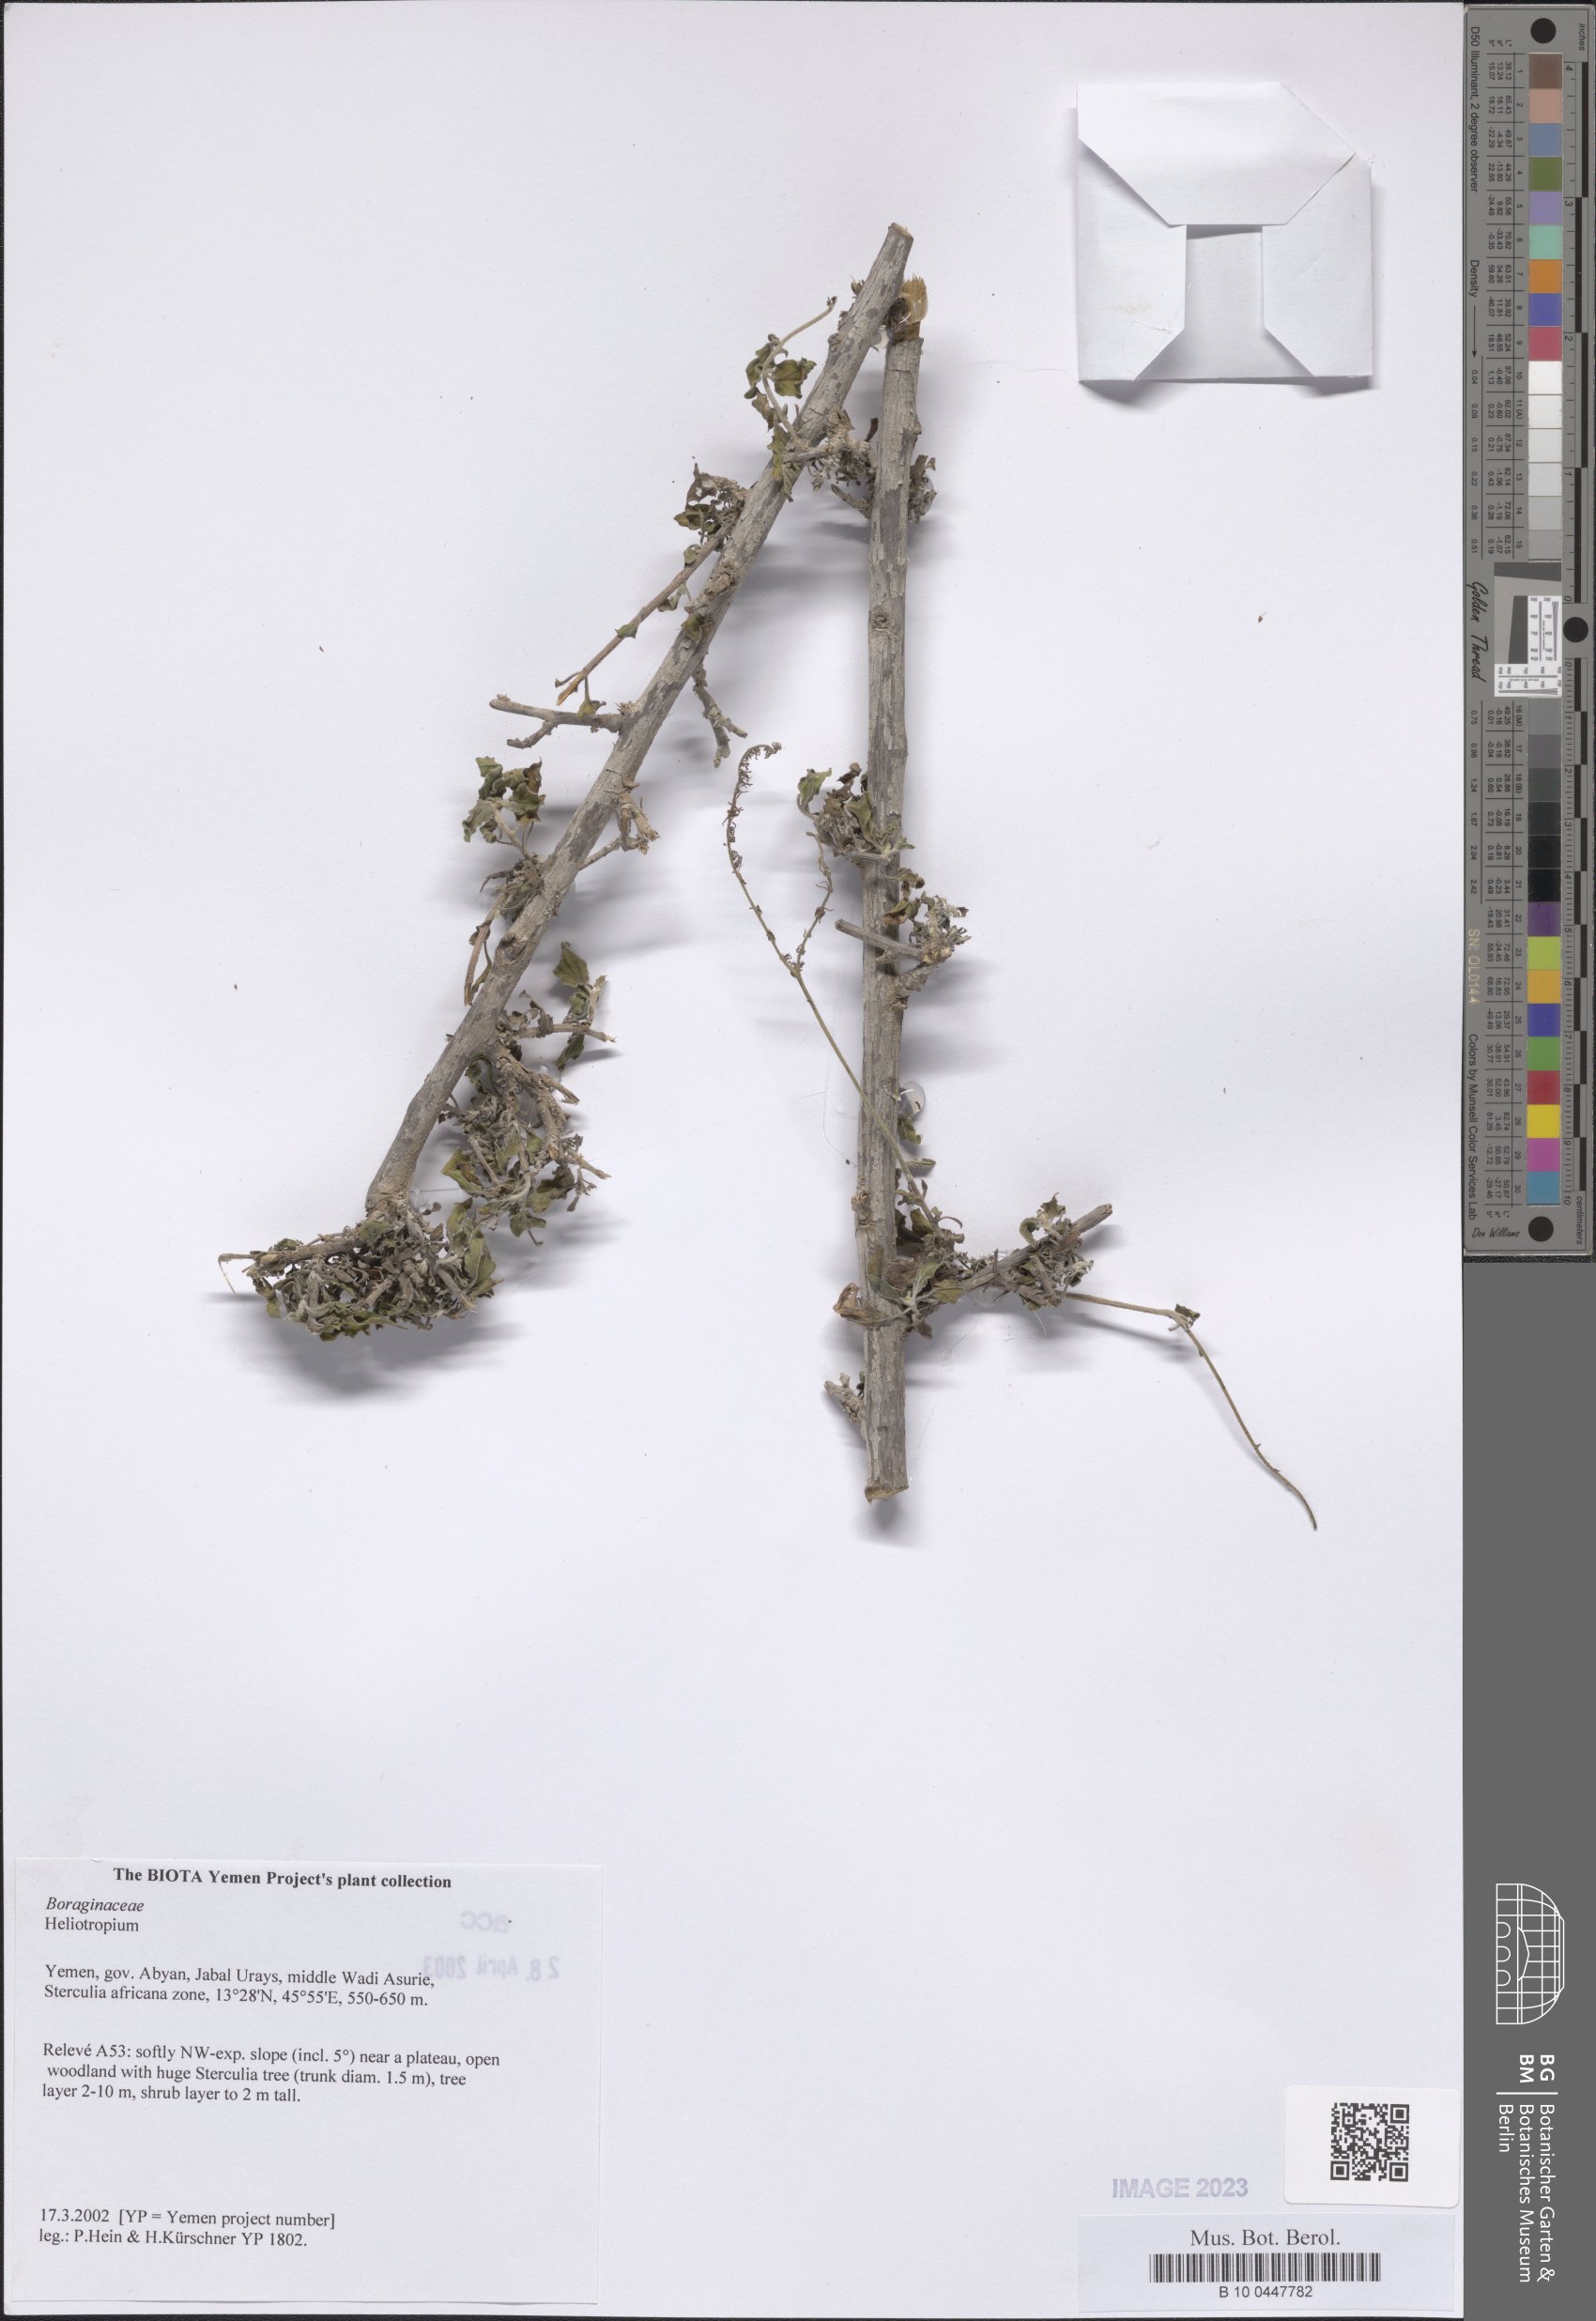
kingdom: Plantae
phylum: Tracheophyta
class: Magnoliopsida
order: Boraginales
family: Heliotropiaceae
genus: Heliotropium
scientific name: Heliotropium
